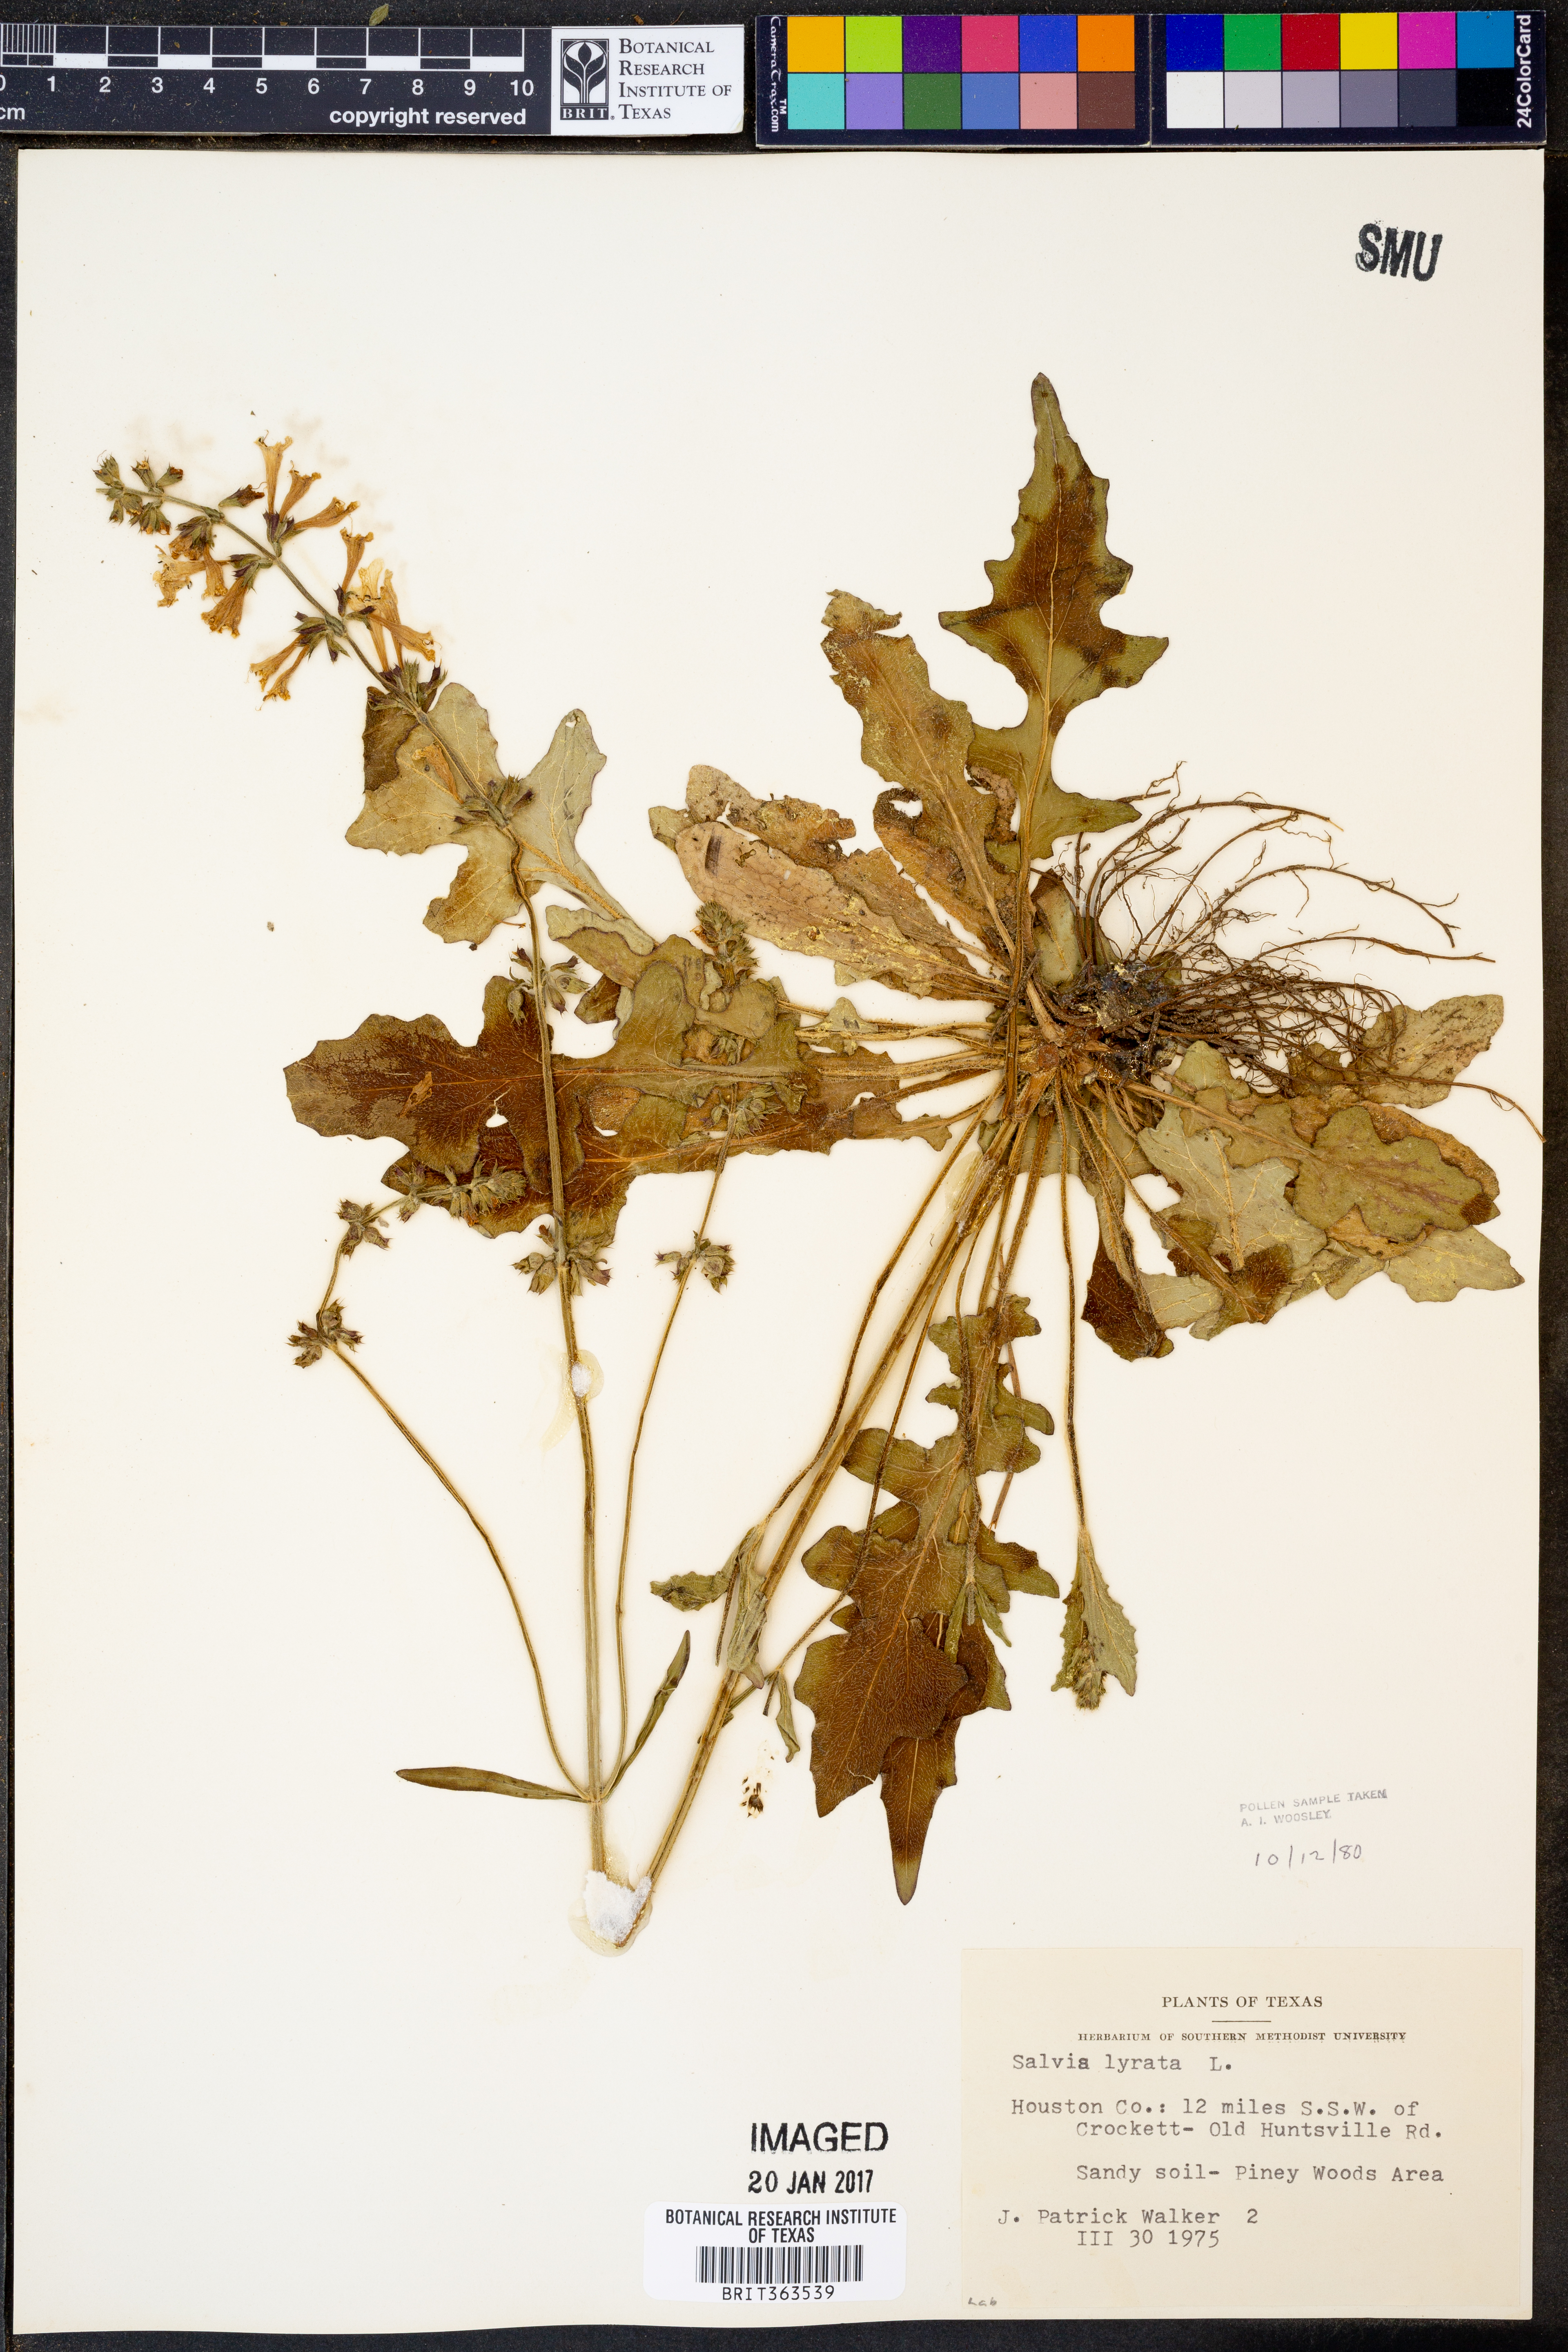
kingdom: Plantae
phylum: Tracheophyta
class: Magnoliopsida
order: Lamiales
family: Lamiaceae
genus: Salvia
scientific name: Salvia lyrata
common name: Cancerweed
